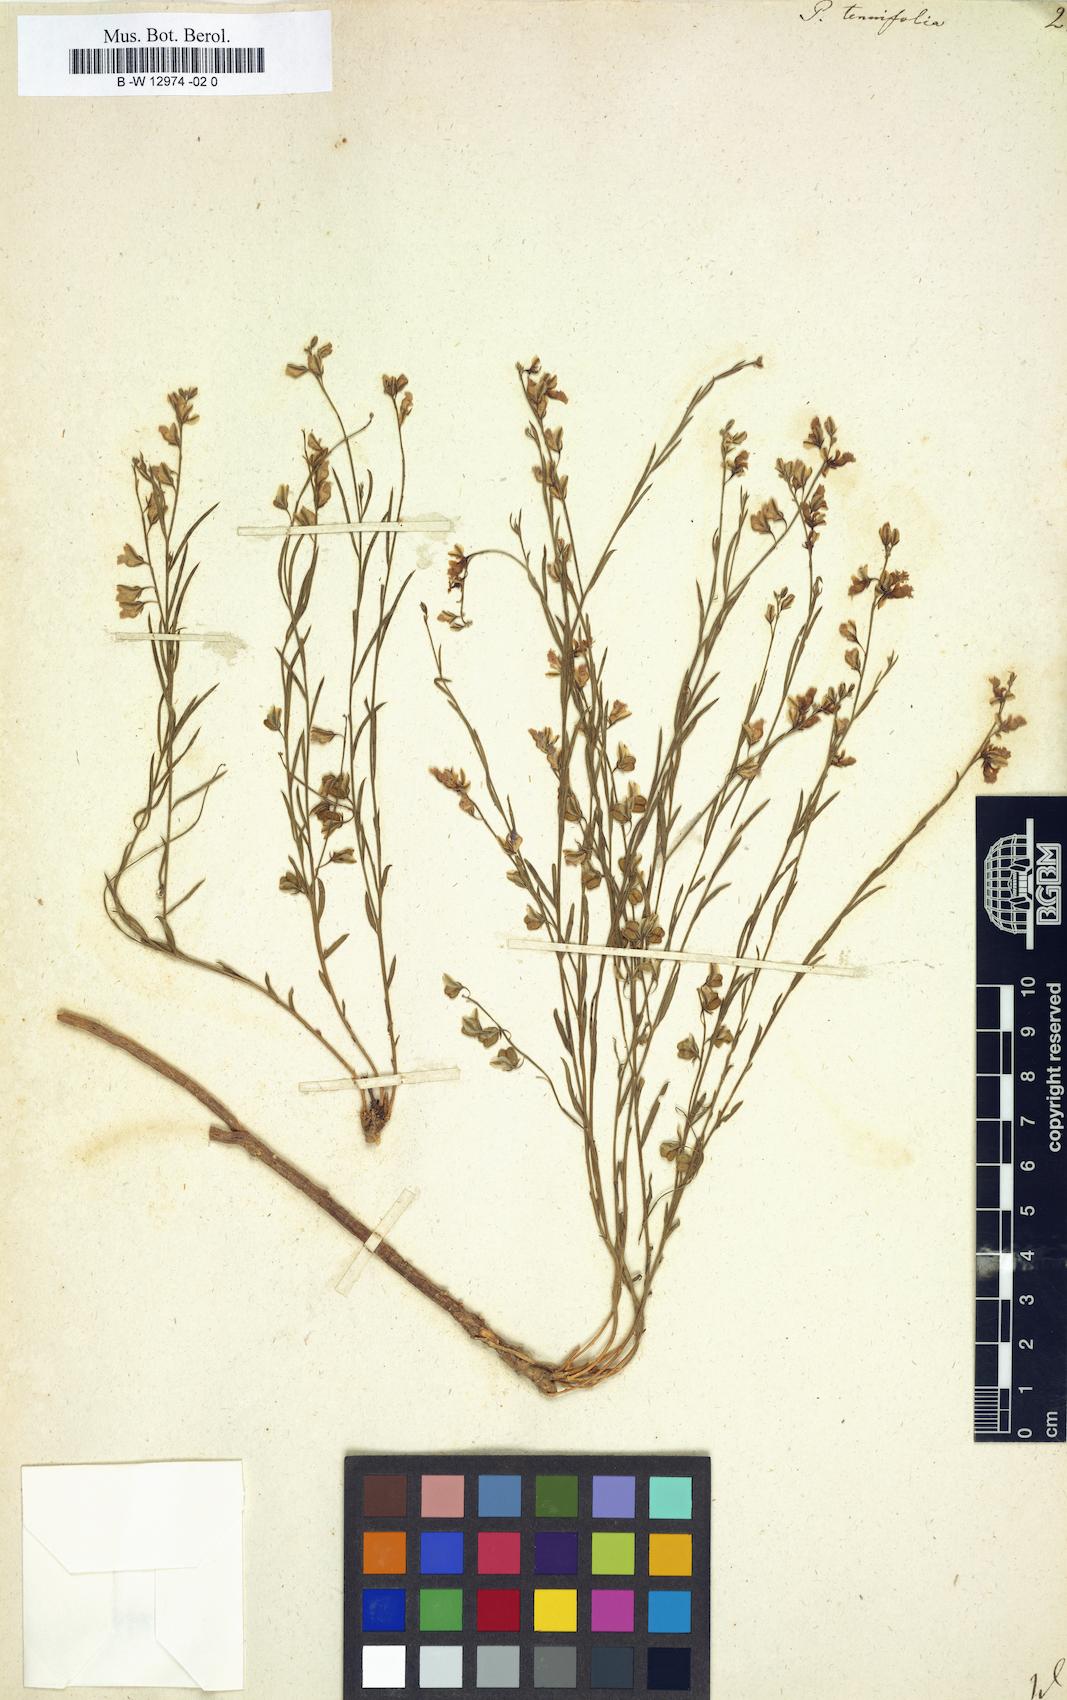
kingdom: Plantae
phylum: Tracheophyta
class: Magnoliopsida
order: Fabales
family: Polygalaceae
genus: Polygala
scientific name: Polygala tenuifolia
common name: Chinese senega-root
